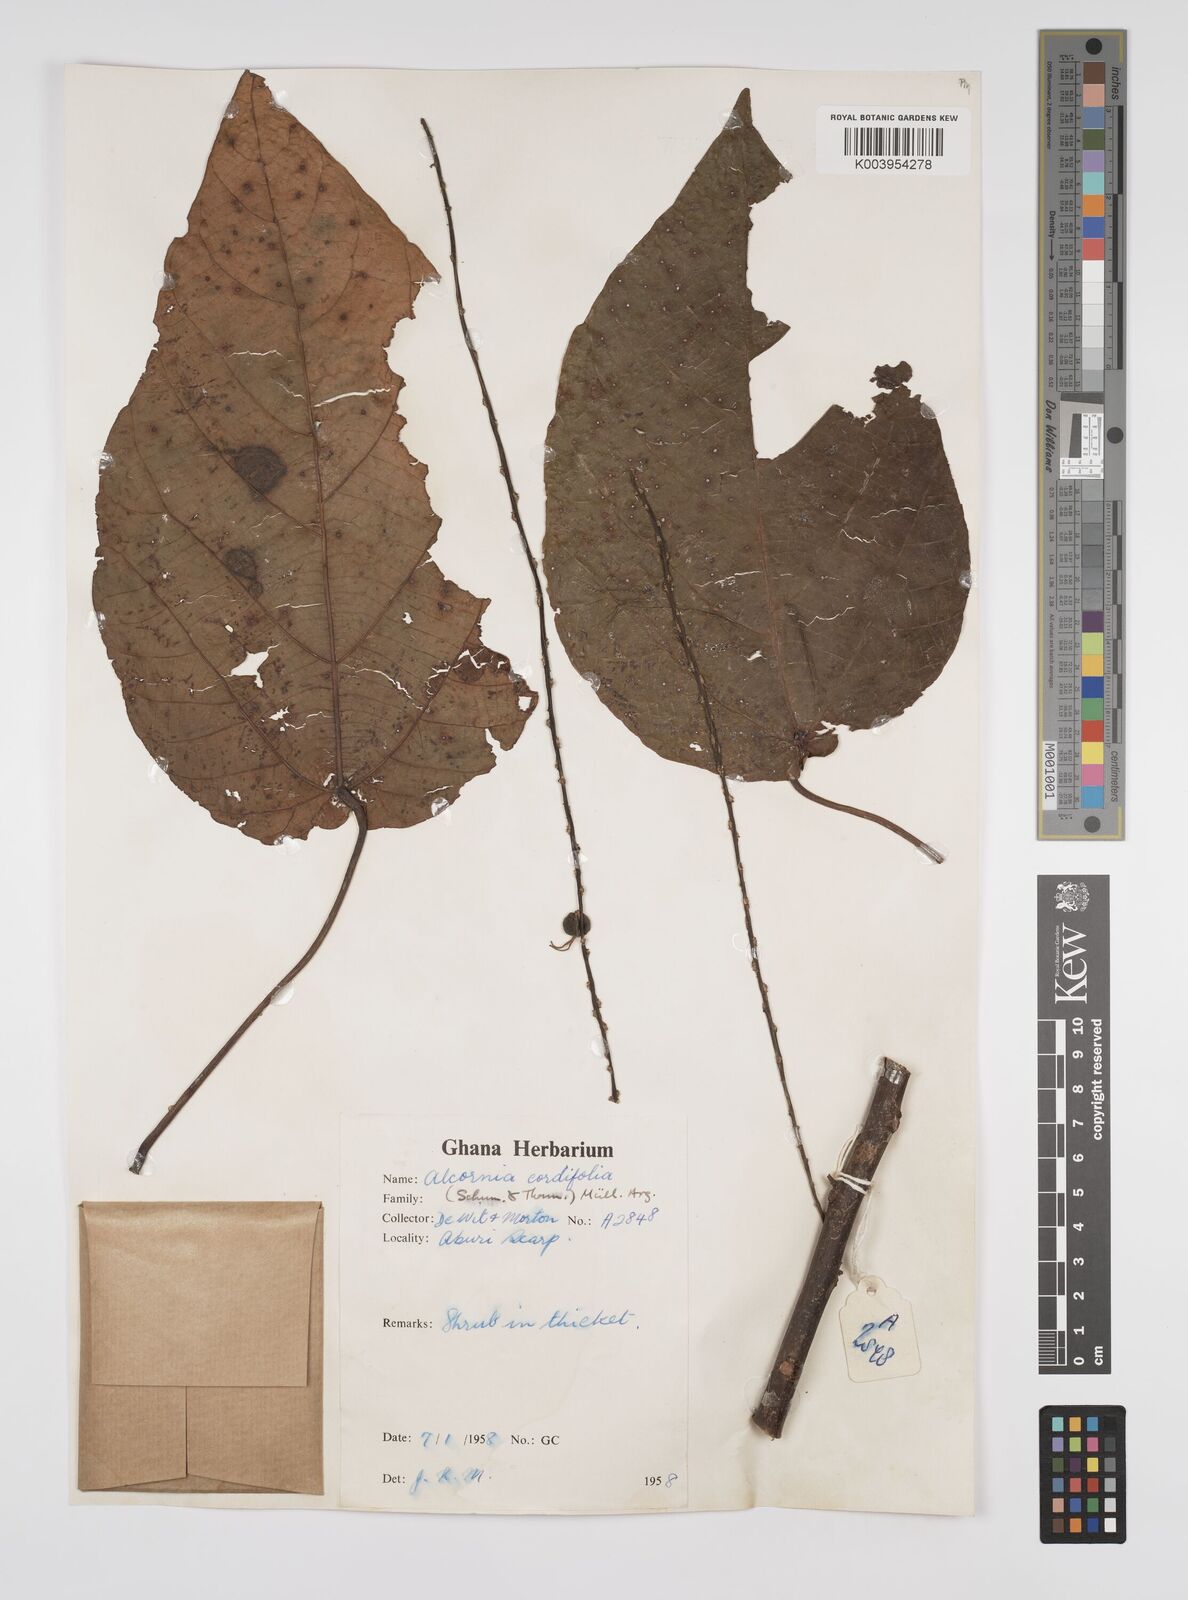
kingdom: Plantae
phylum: Tracheophyta
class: Magnoliopsida
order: Malpighiales
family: Euphorbiaceae
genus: Alchornea
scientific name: Alchornea cordifolia
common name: Christmasbush
